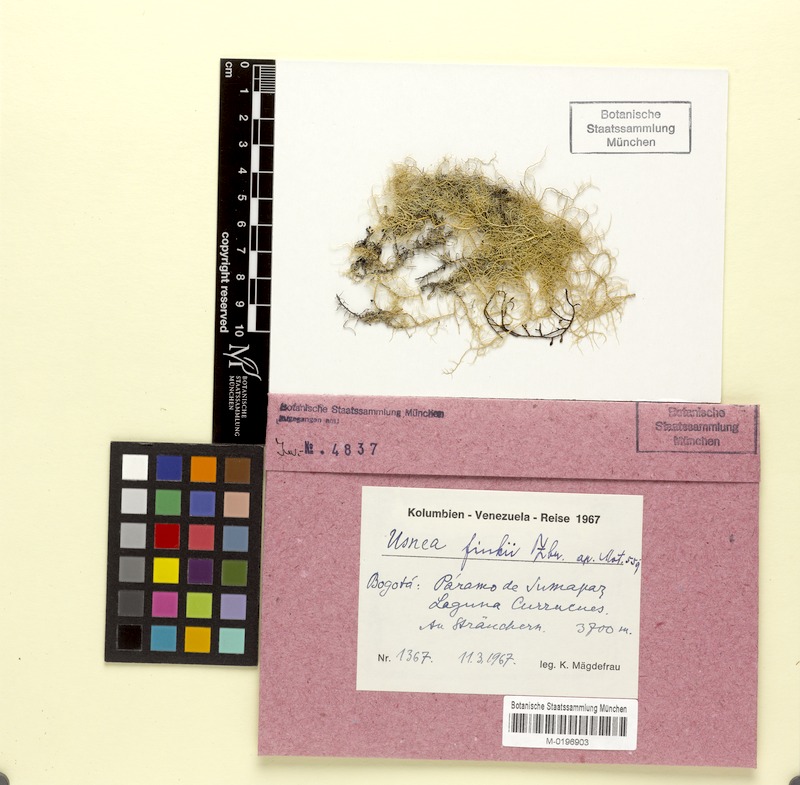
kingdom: Fungi
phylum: Ascomycota
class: Lecanoromycetes
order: Lecanorales
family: Parmeliaceae
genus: Usnea
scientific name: Usnea finkii
